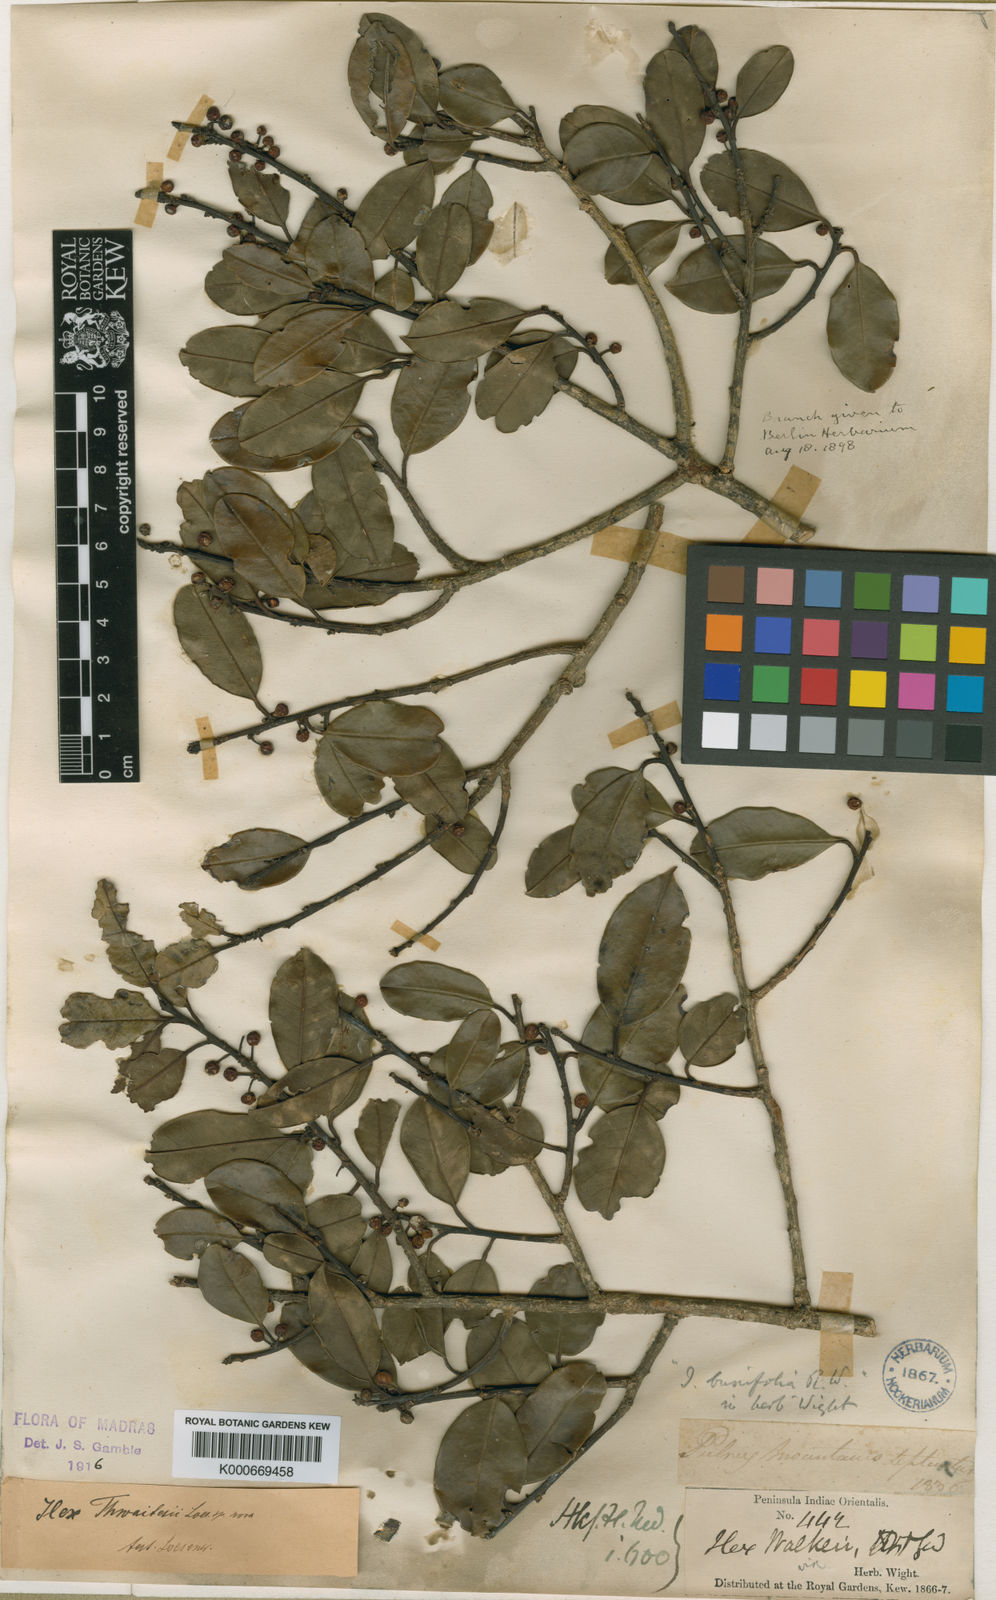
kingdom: Plantae
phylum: Tracheophyta
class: Magnoliopsida
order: Aquifoliales
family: Aquifoliaceae
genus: Ilex
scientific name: Ilex
